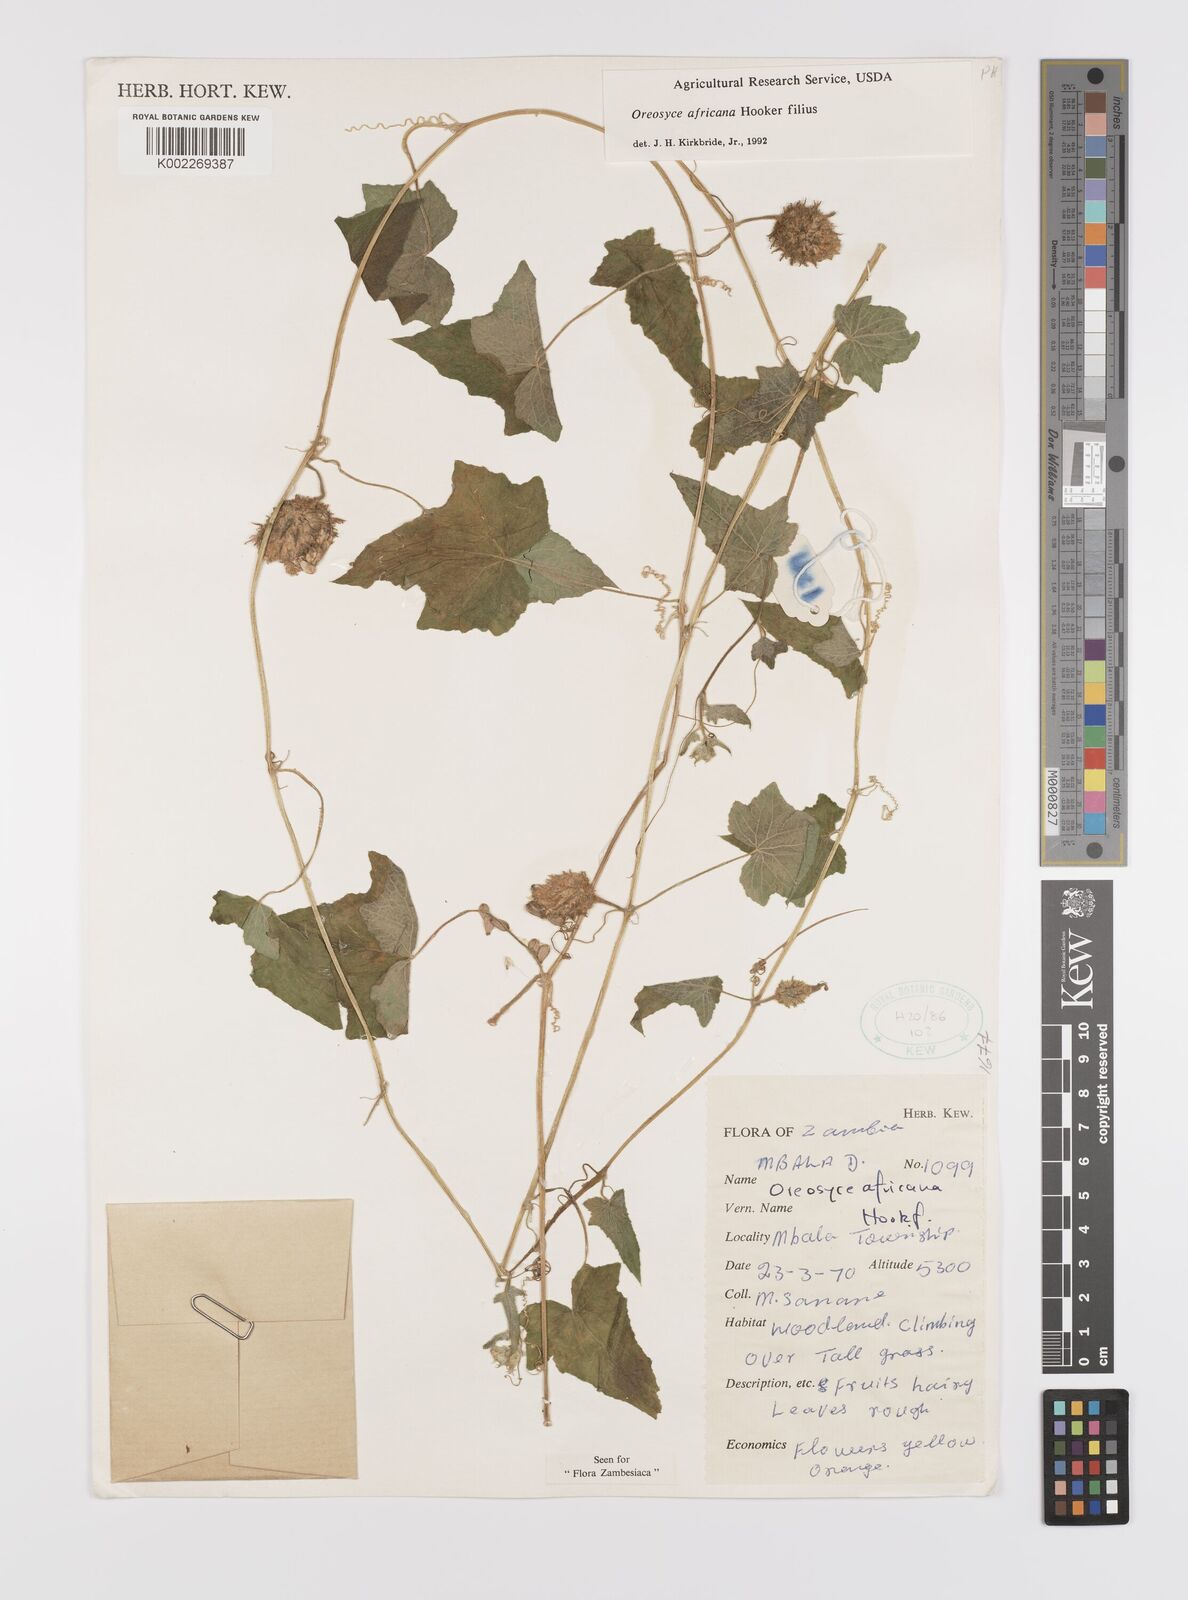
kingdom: Plantae
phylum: Tracheophyta
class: Magnoliopsida
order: Cucurbitales
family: Cucurbitaceae
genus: Cucumis
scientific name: Cucumis oreosyce
